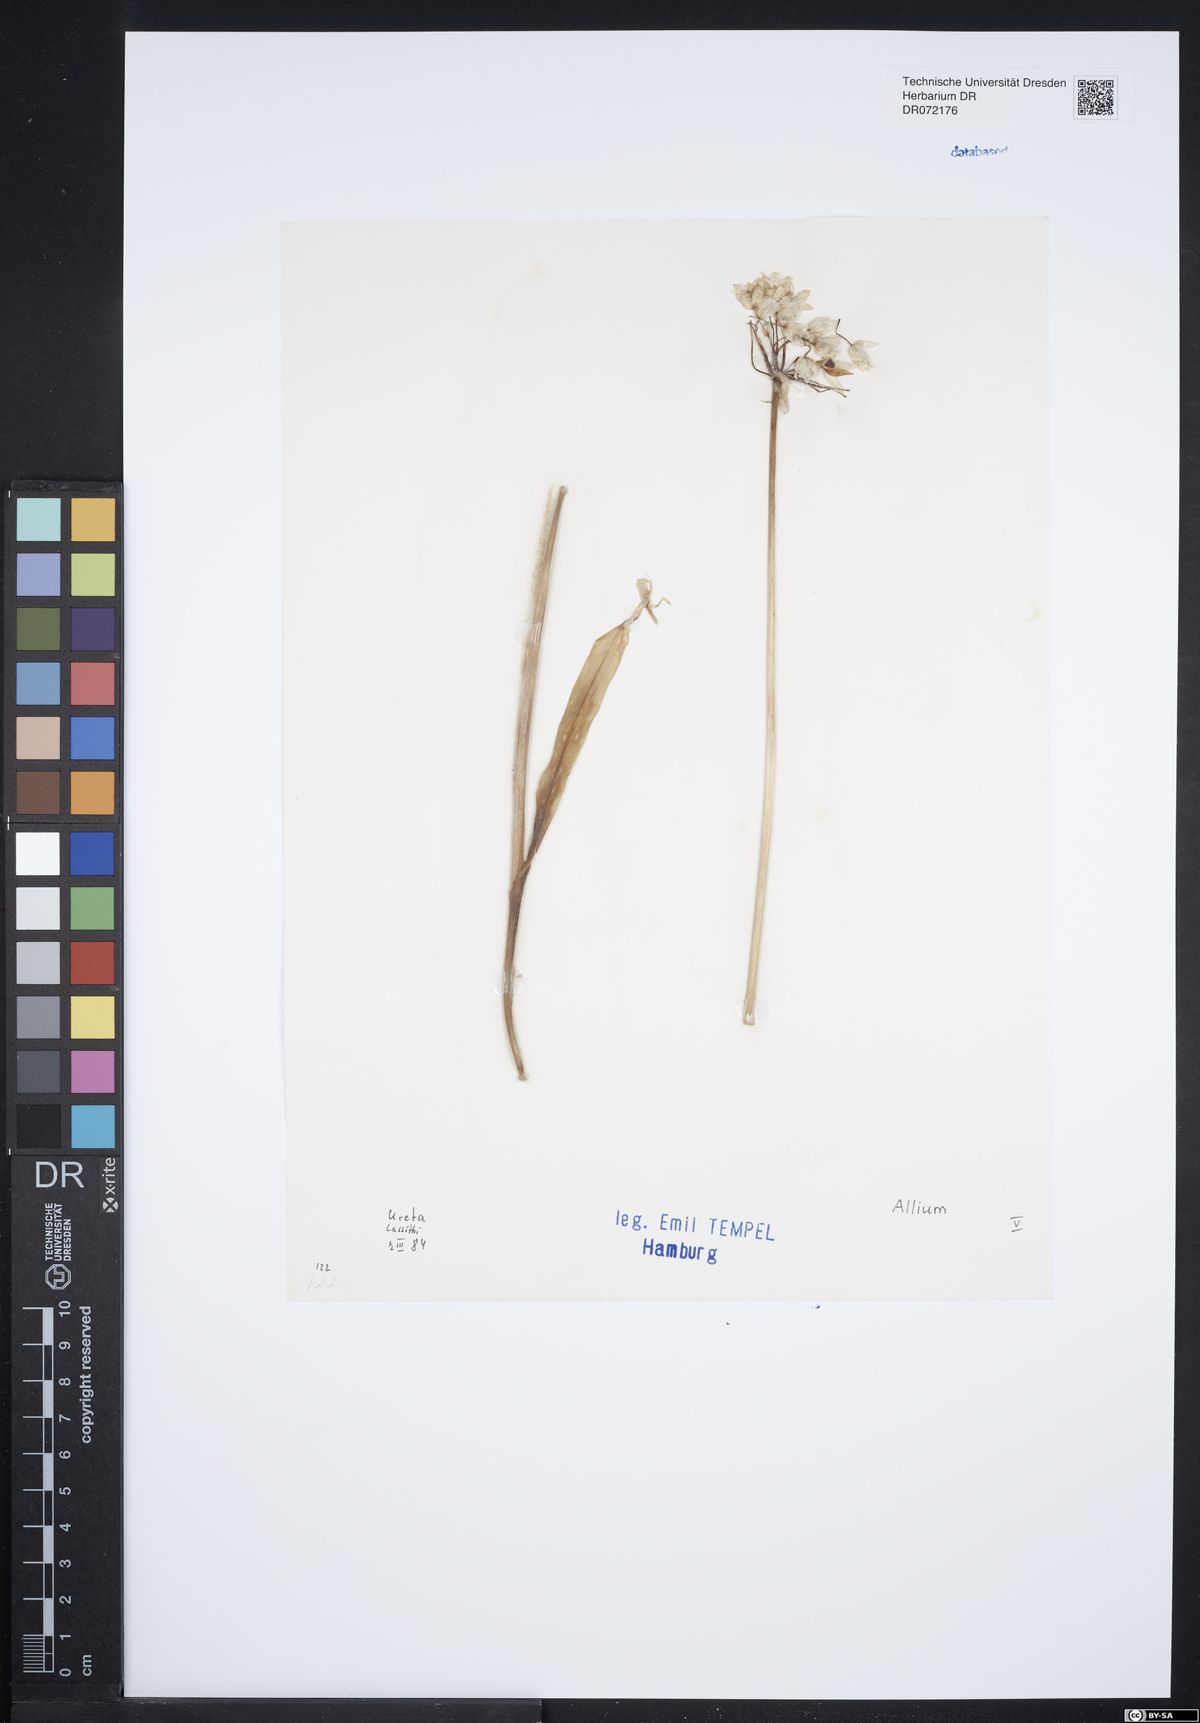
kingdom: Plantae
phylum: Tracheophyta
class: Liliopsida
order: Asparagales
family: Amaryllidaceae
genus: Allium
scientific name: Allium
